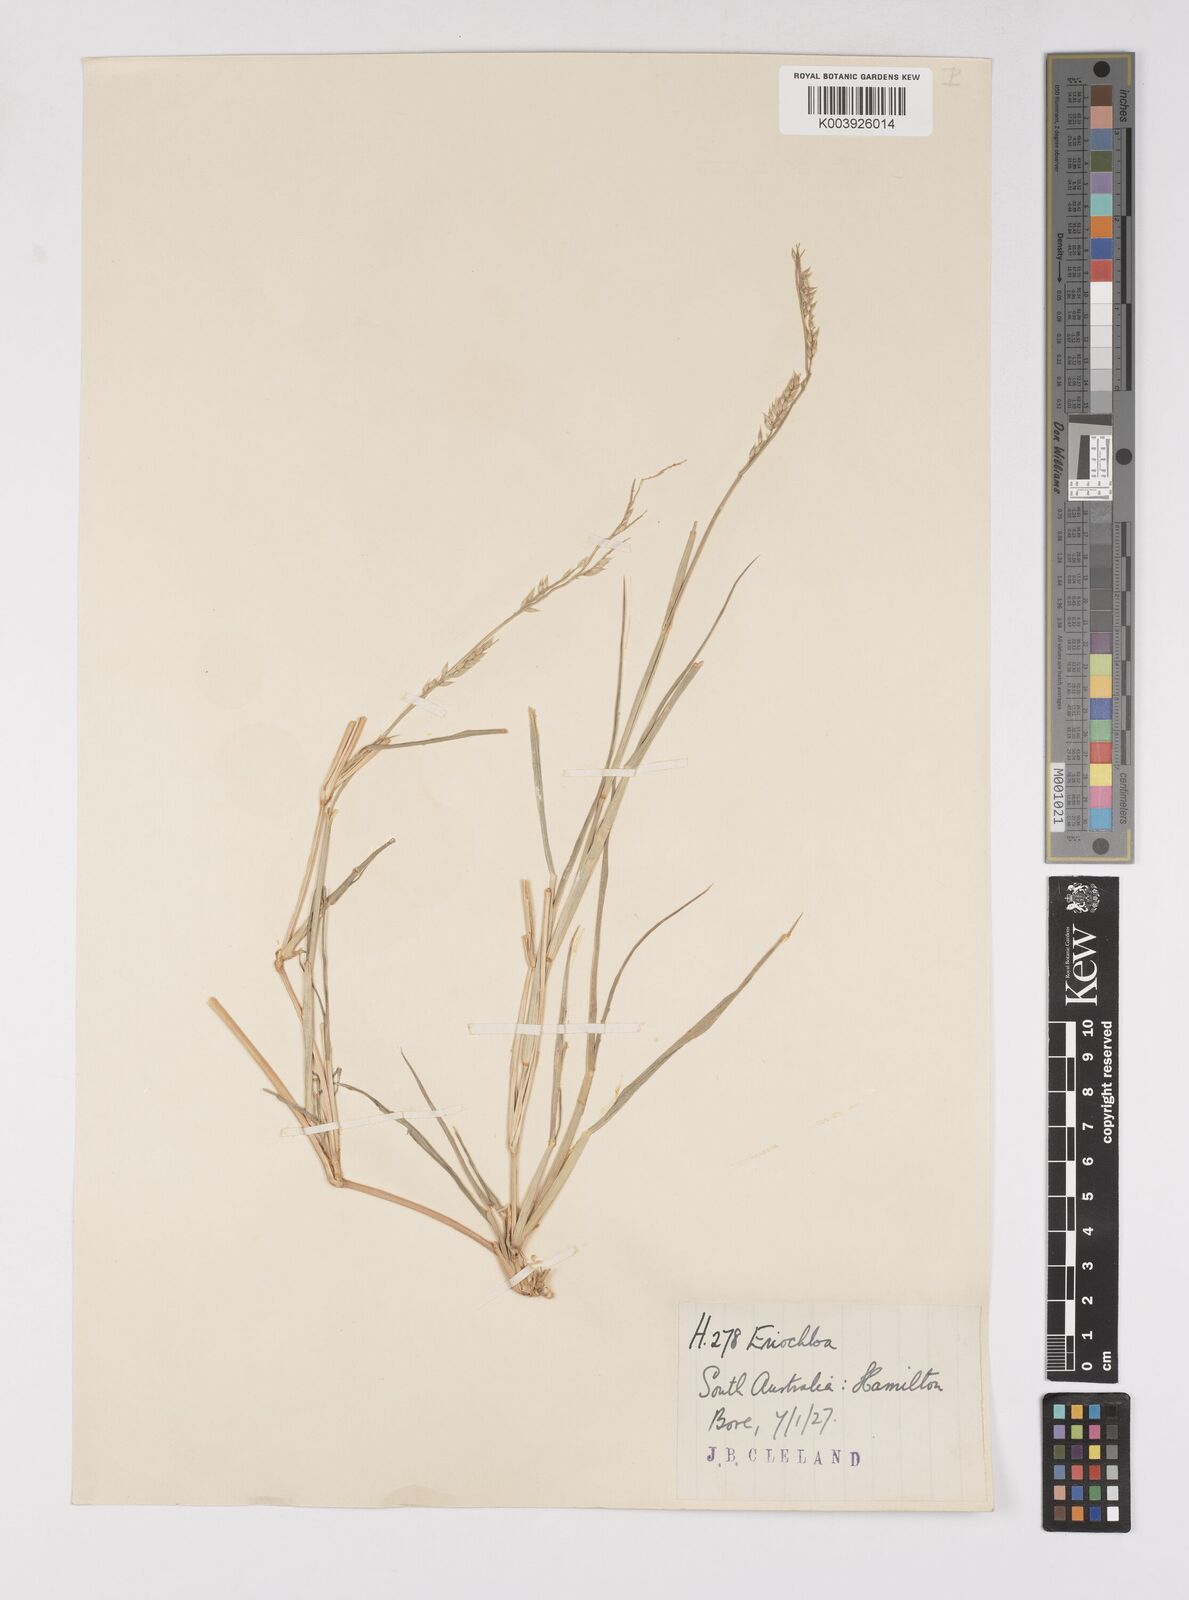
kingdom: Plantae
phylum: Tracheophyta
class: Liliopsida
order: Poales
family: Poaceae
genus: Eriochloa
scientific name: Eriochloa
